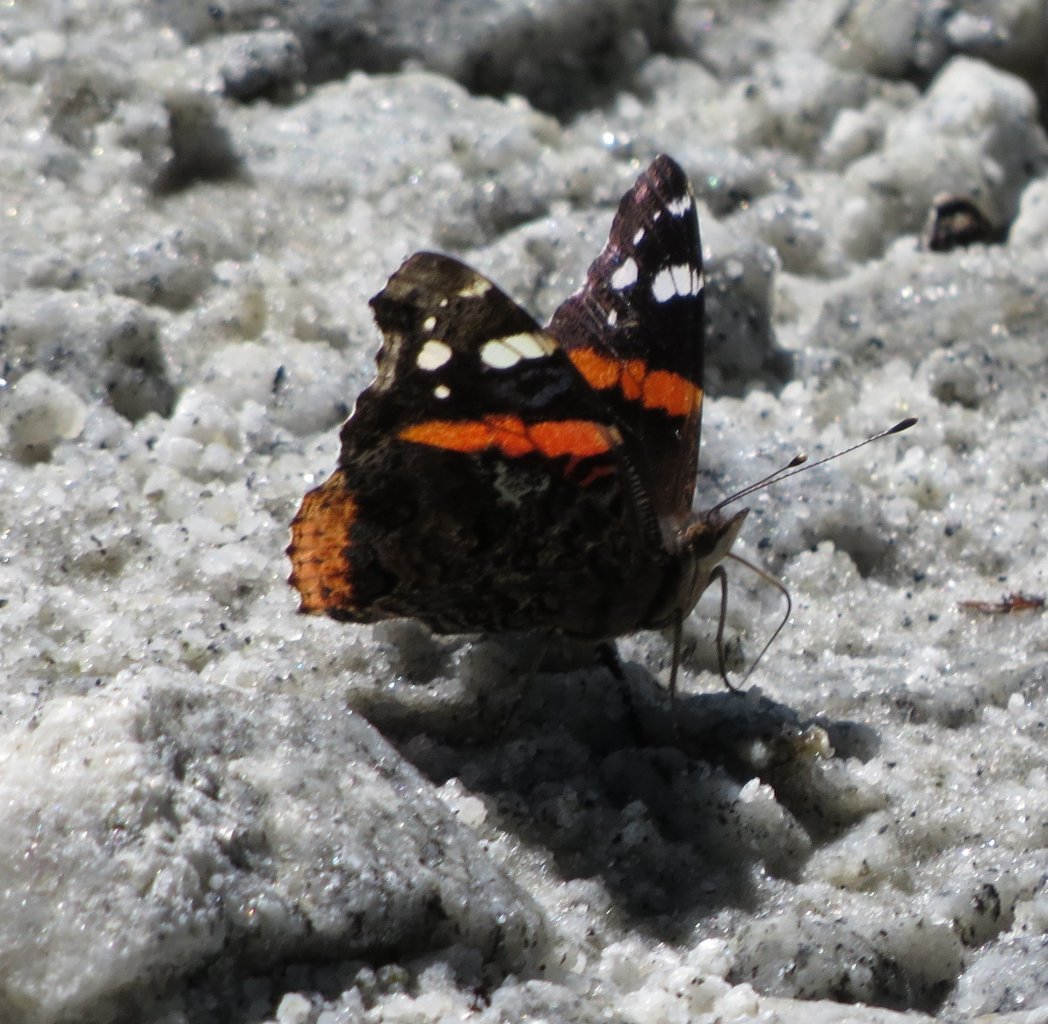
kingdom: Animalia
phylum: Arthropoda
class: Insecta
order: Lepidoptera
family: Nymphalidae
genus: Vanessa
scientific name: Vanessa atalanta
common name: Red Admiral
